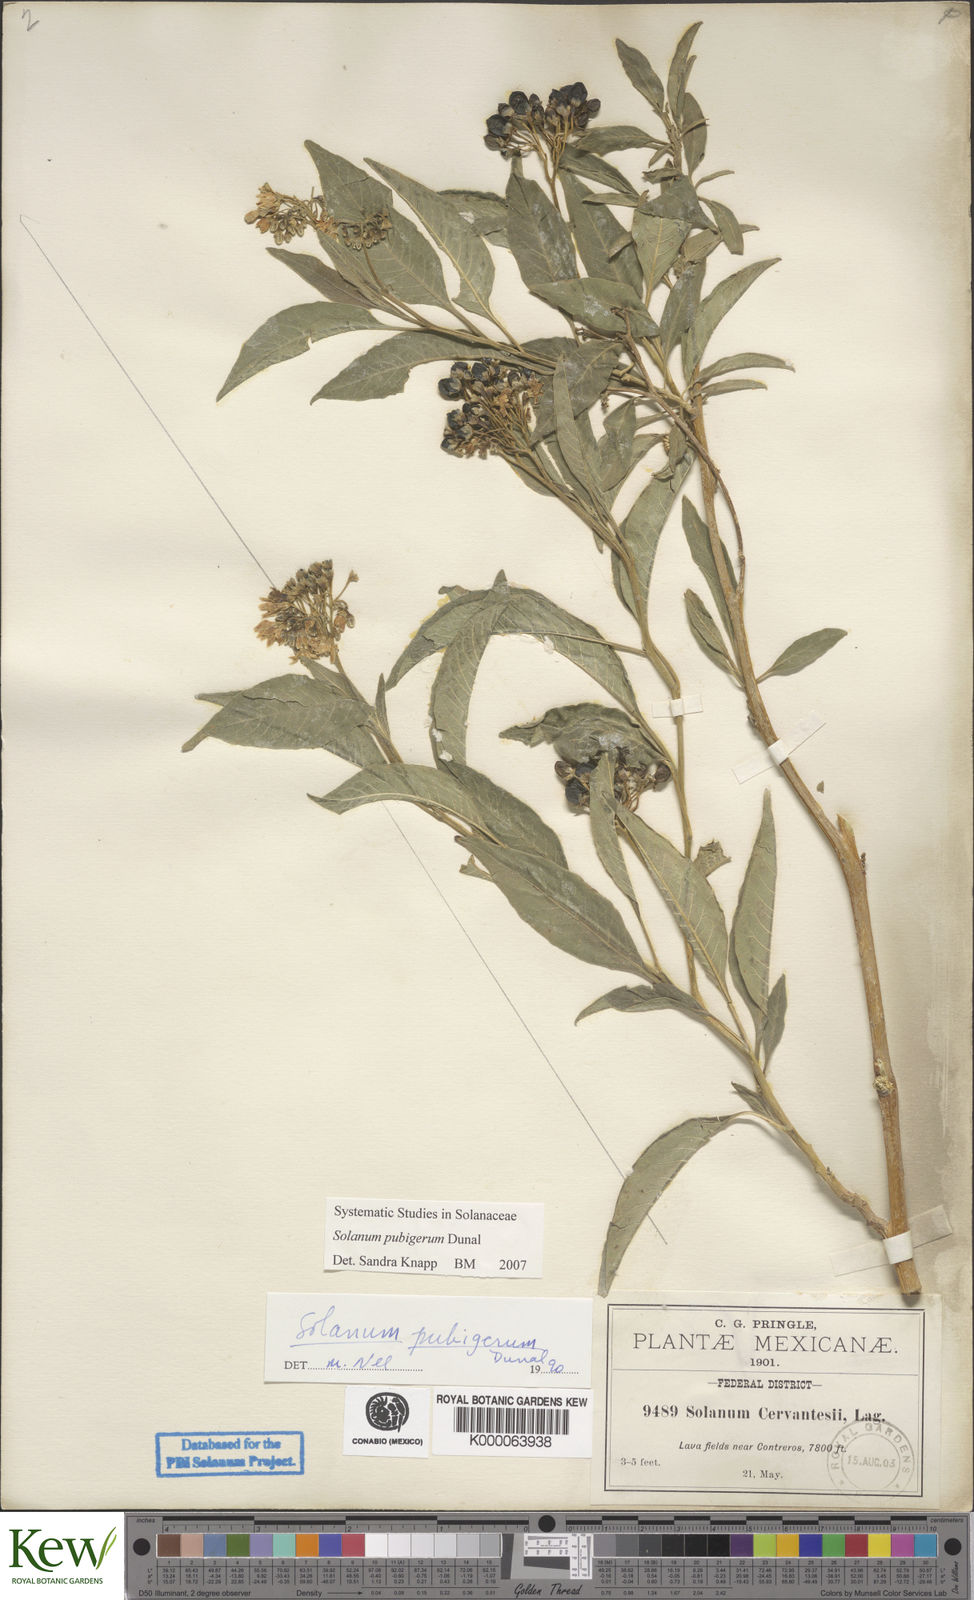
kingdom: Plantae
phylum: Tracheophyta
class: Magnoliopsida
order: Solanales
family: Solanaceae
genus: Solanum
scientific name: Solanum pubigerum
